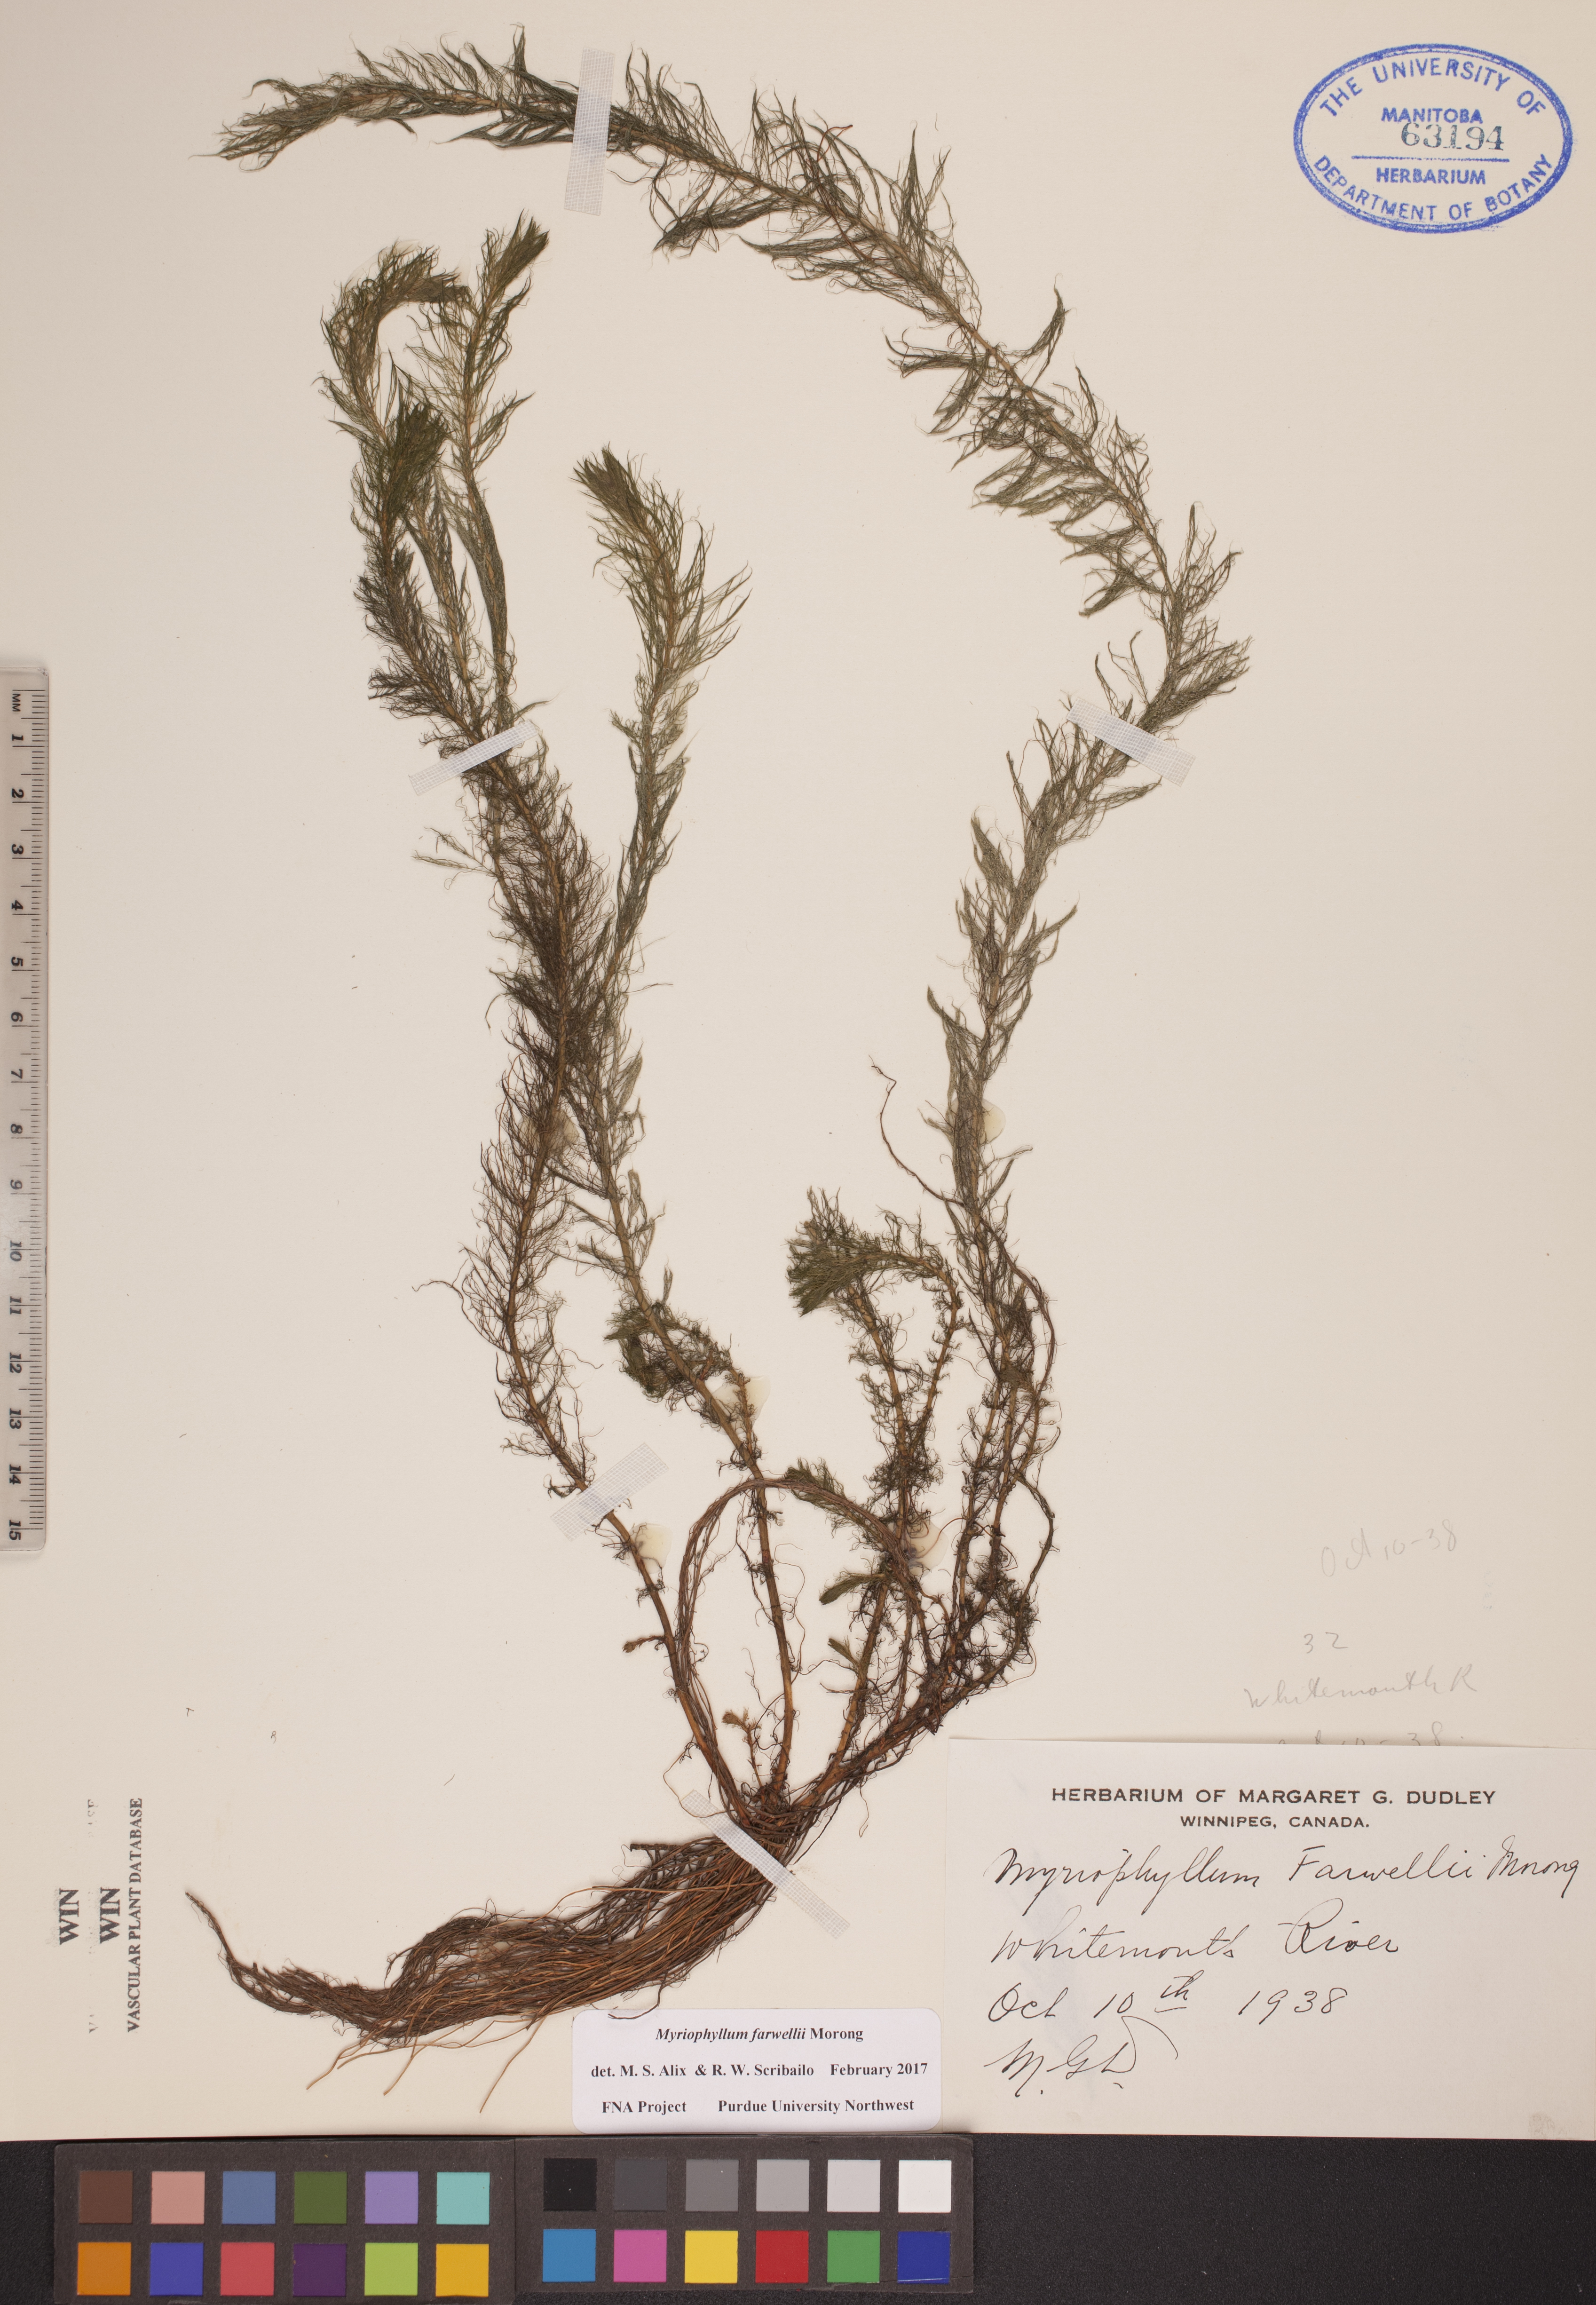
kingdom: Plantae
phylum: Tracheophyta
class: Magnoliopsida
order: Saxifragales
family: Haloragaceae
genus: Myriophyllum
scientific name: Myriophyllum farwellii
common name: Farwell's water-milfoil
